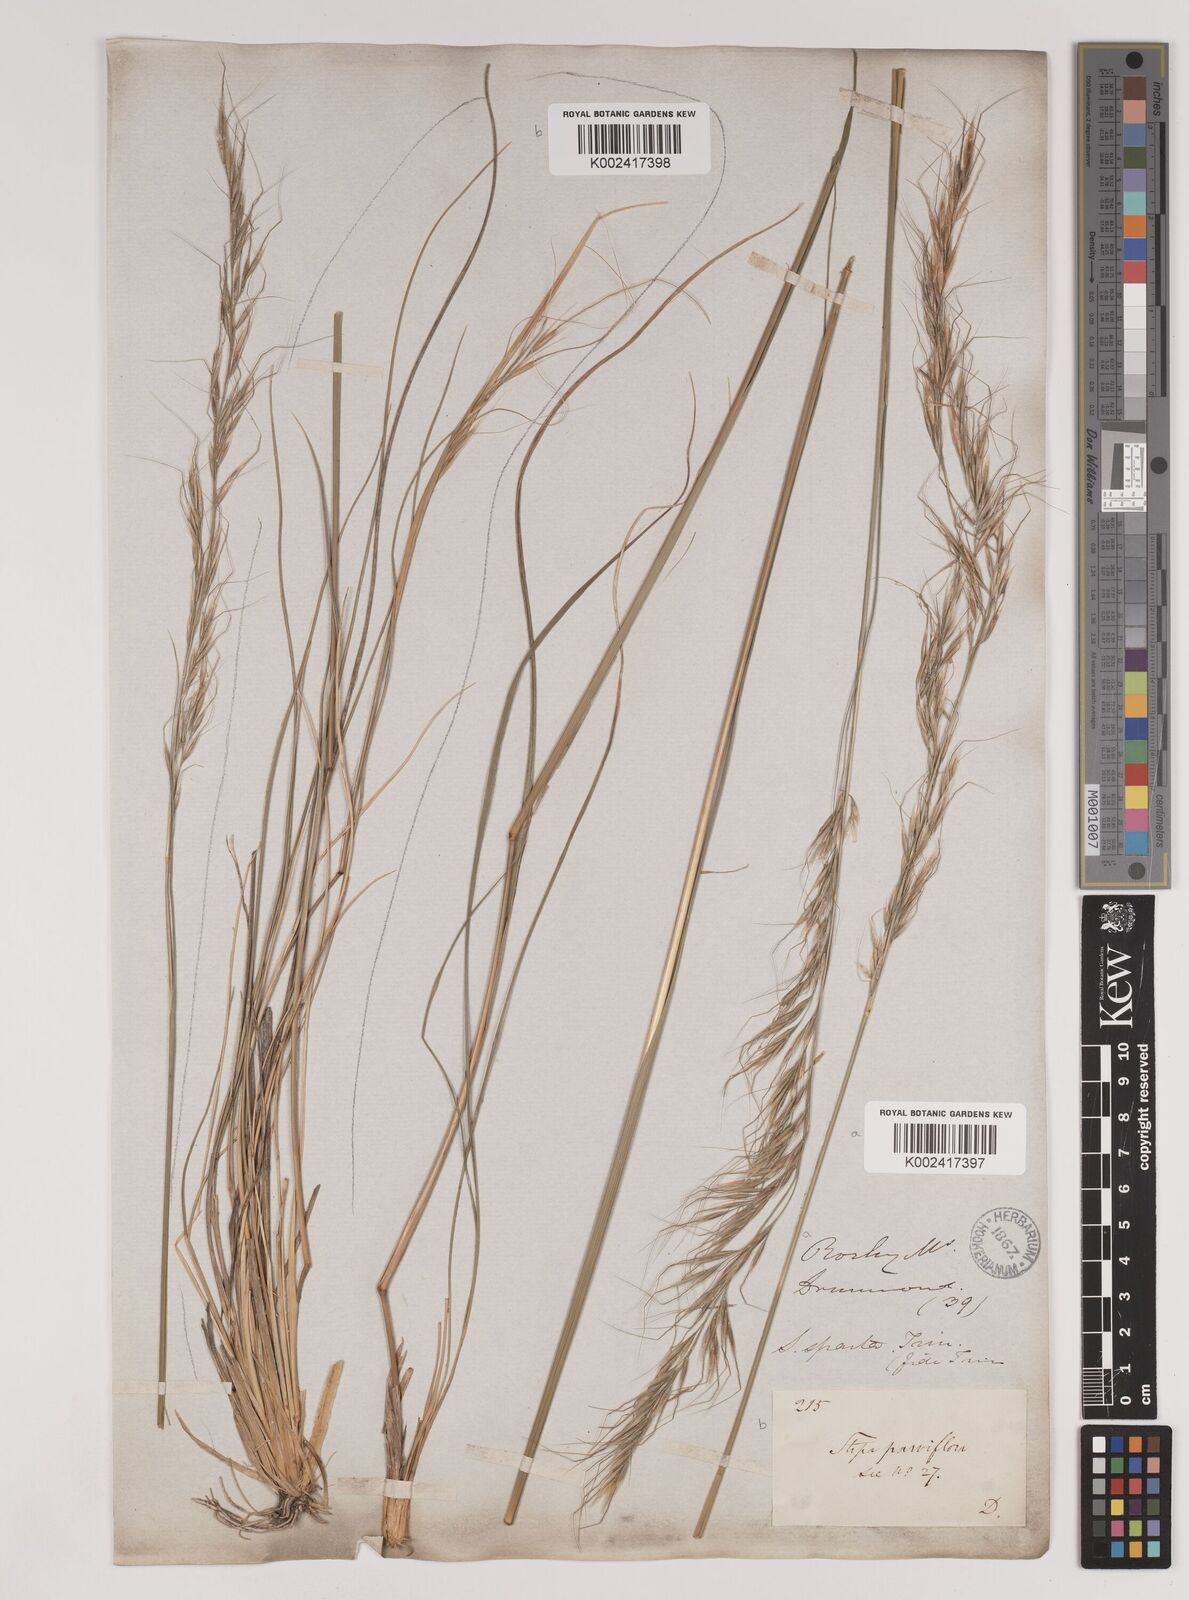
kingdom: Plantae
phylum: Tracheophyta
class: Liliopsida
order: Poales
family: Poaceae
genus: Nassella
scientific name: Nassella viridula
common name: Green needlegrass
